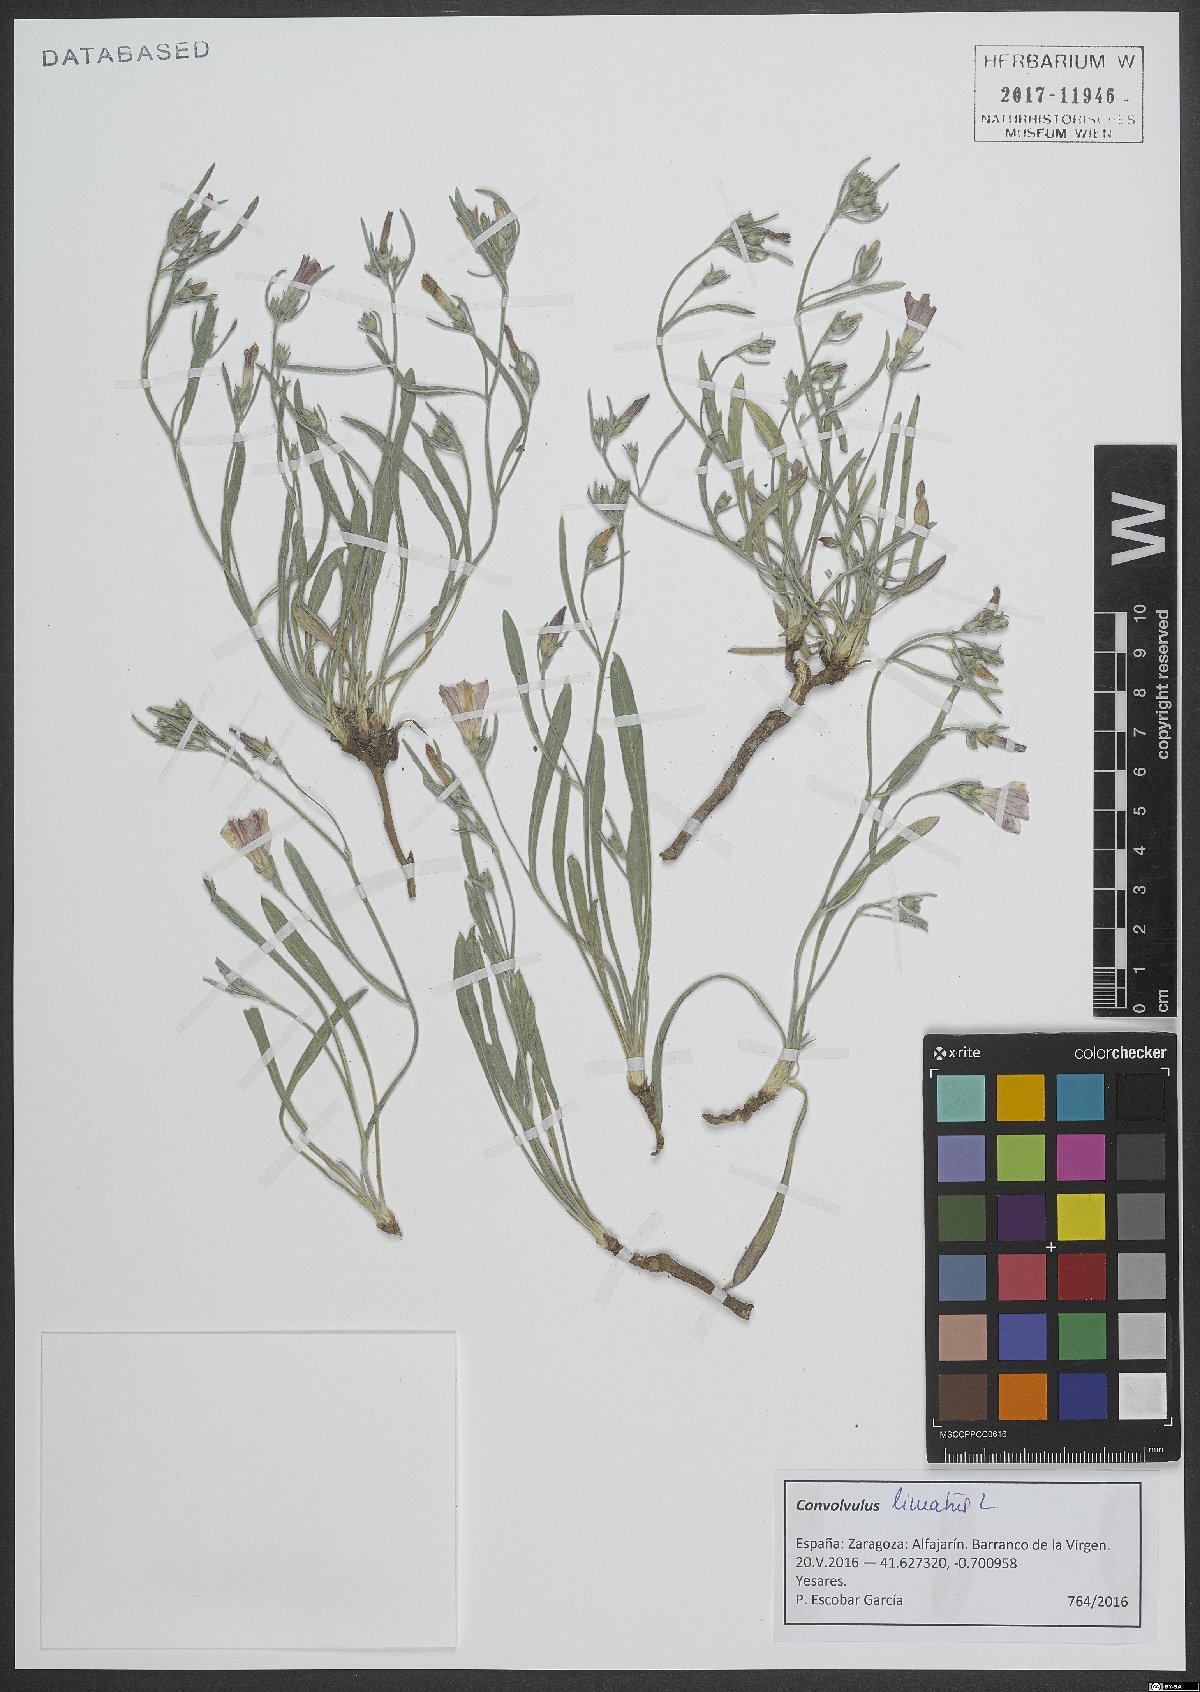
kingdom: Plantae
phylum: Tracheophyta
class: Magnoliopsida
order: Solanales
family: Convolvulaceae
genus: Convolvulus
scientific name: Convolvulus lineatus
